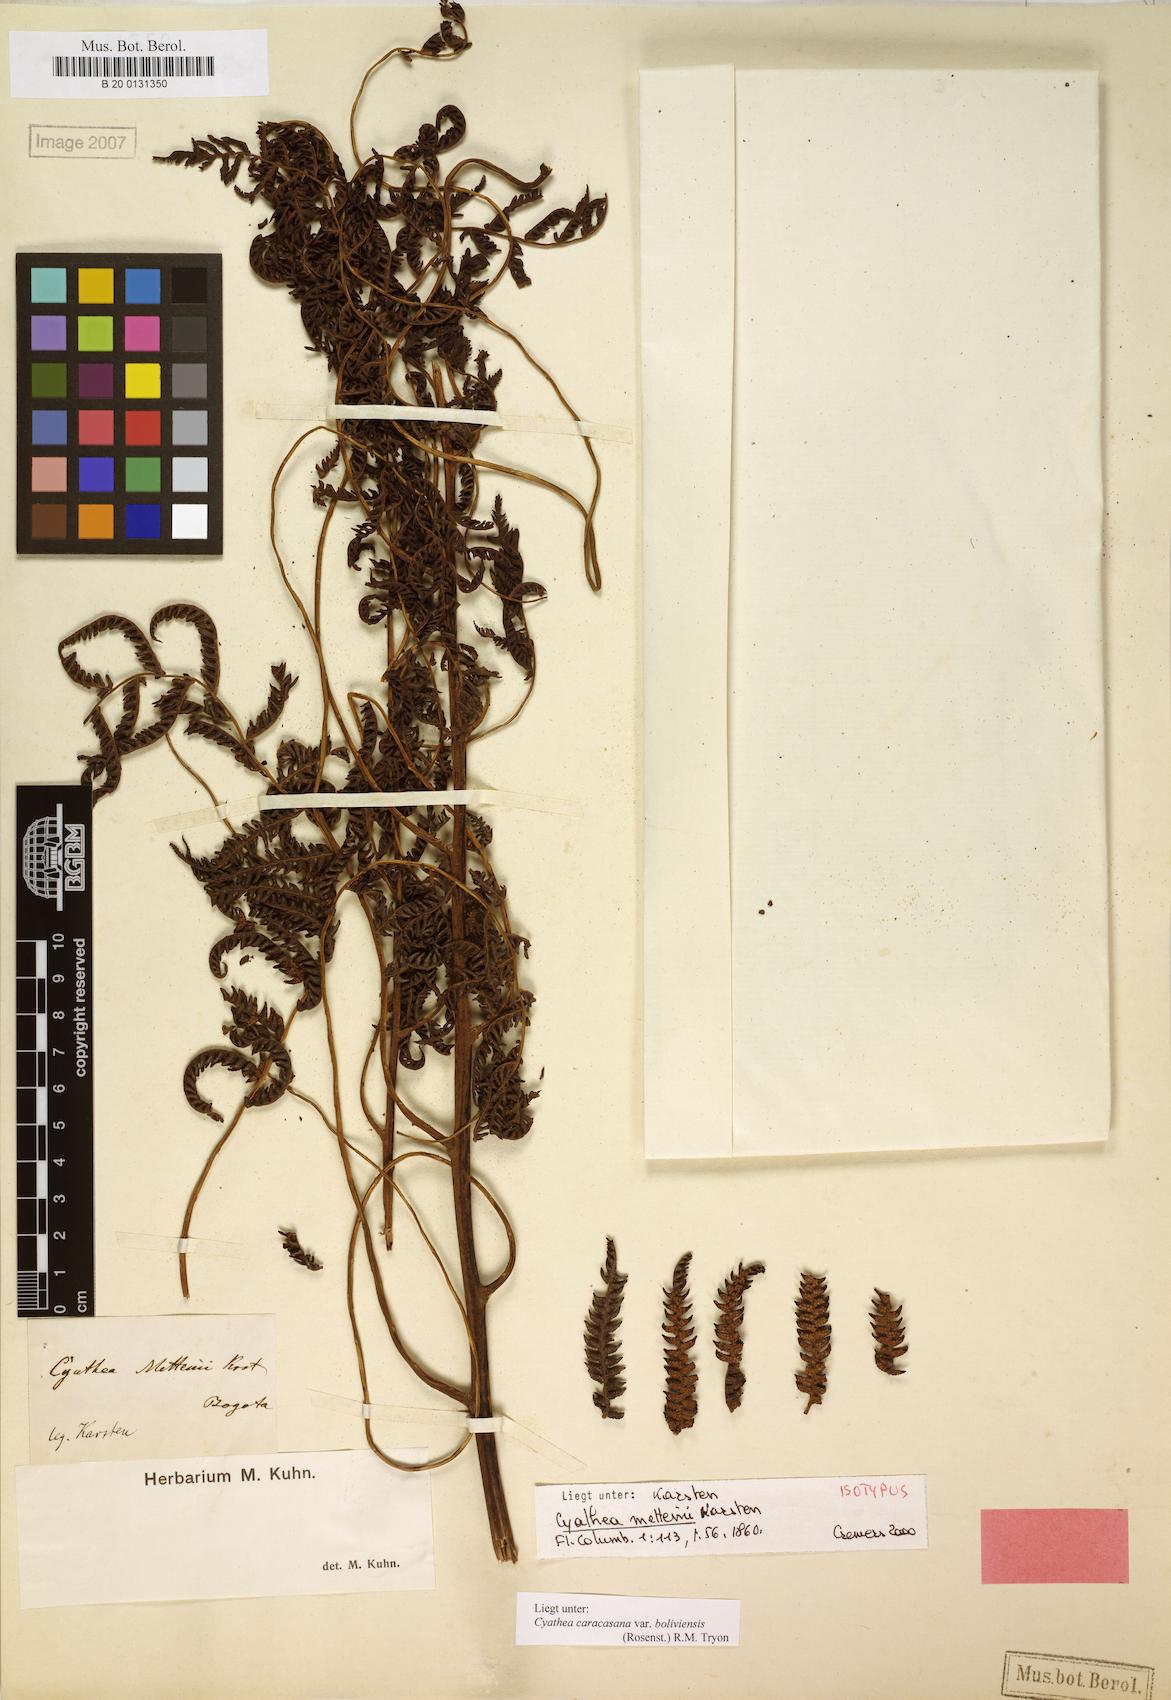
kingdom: Plantae
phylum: Tracheophyta
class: Polypodiopsida
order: Cyatheales
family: Cyatheaceae
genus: Cyathea
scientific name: Cyathea squamipes
